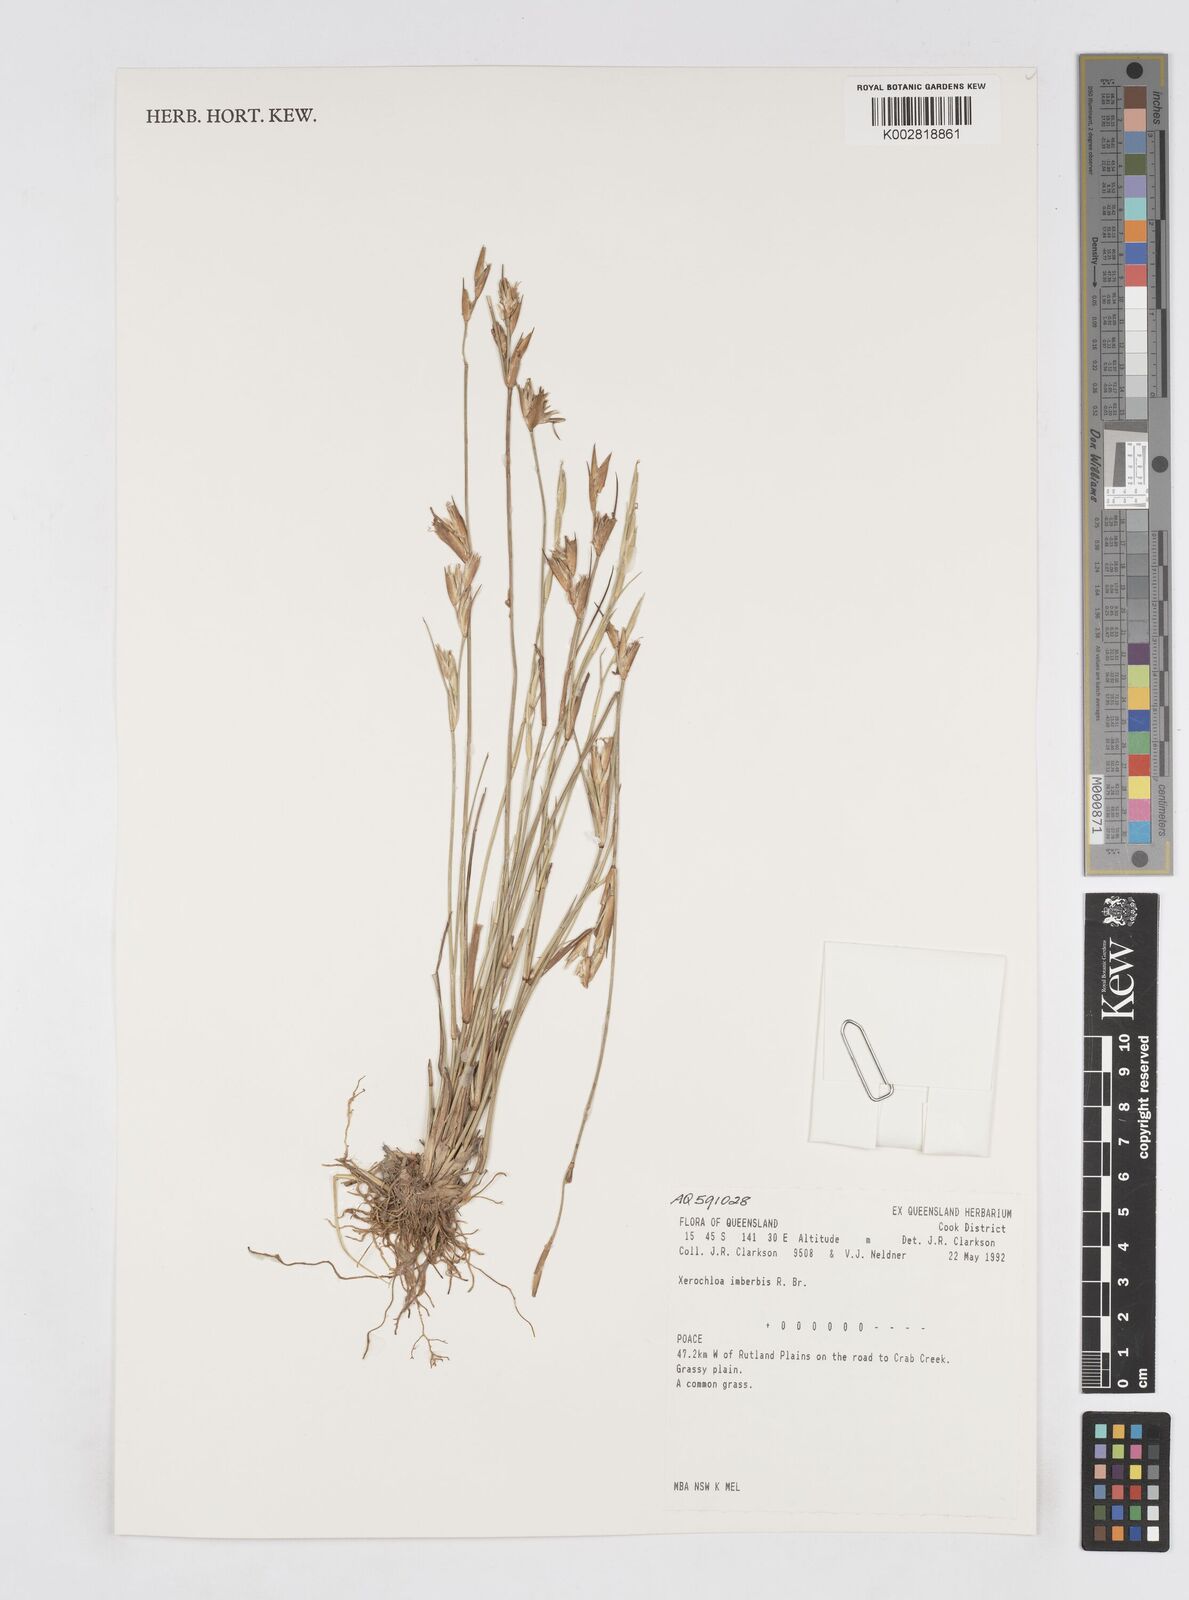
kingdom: Plantae
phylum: Tracheophyta
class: Liliopsida
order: Poales
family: Poaceae
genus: Xerochloa
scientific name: Xerochloa imberbis
